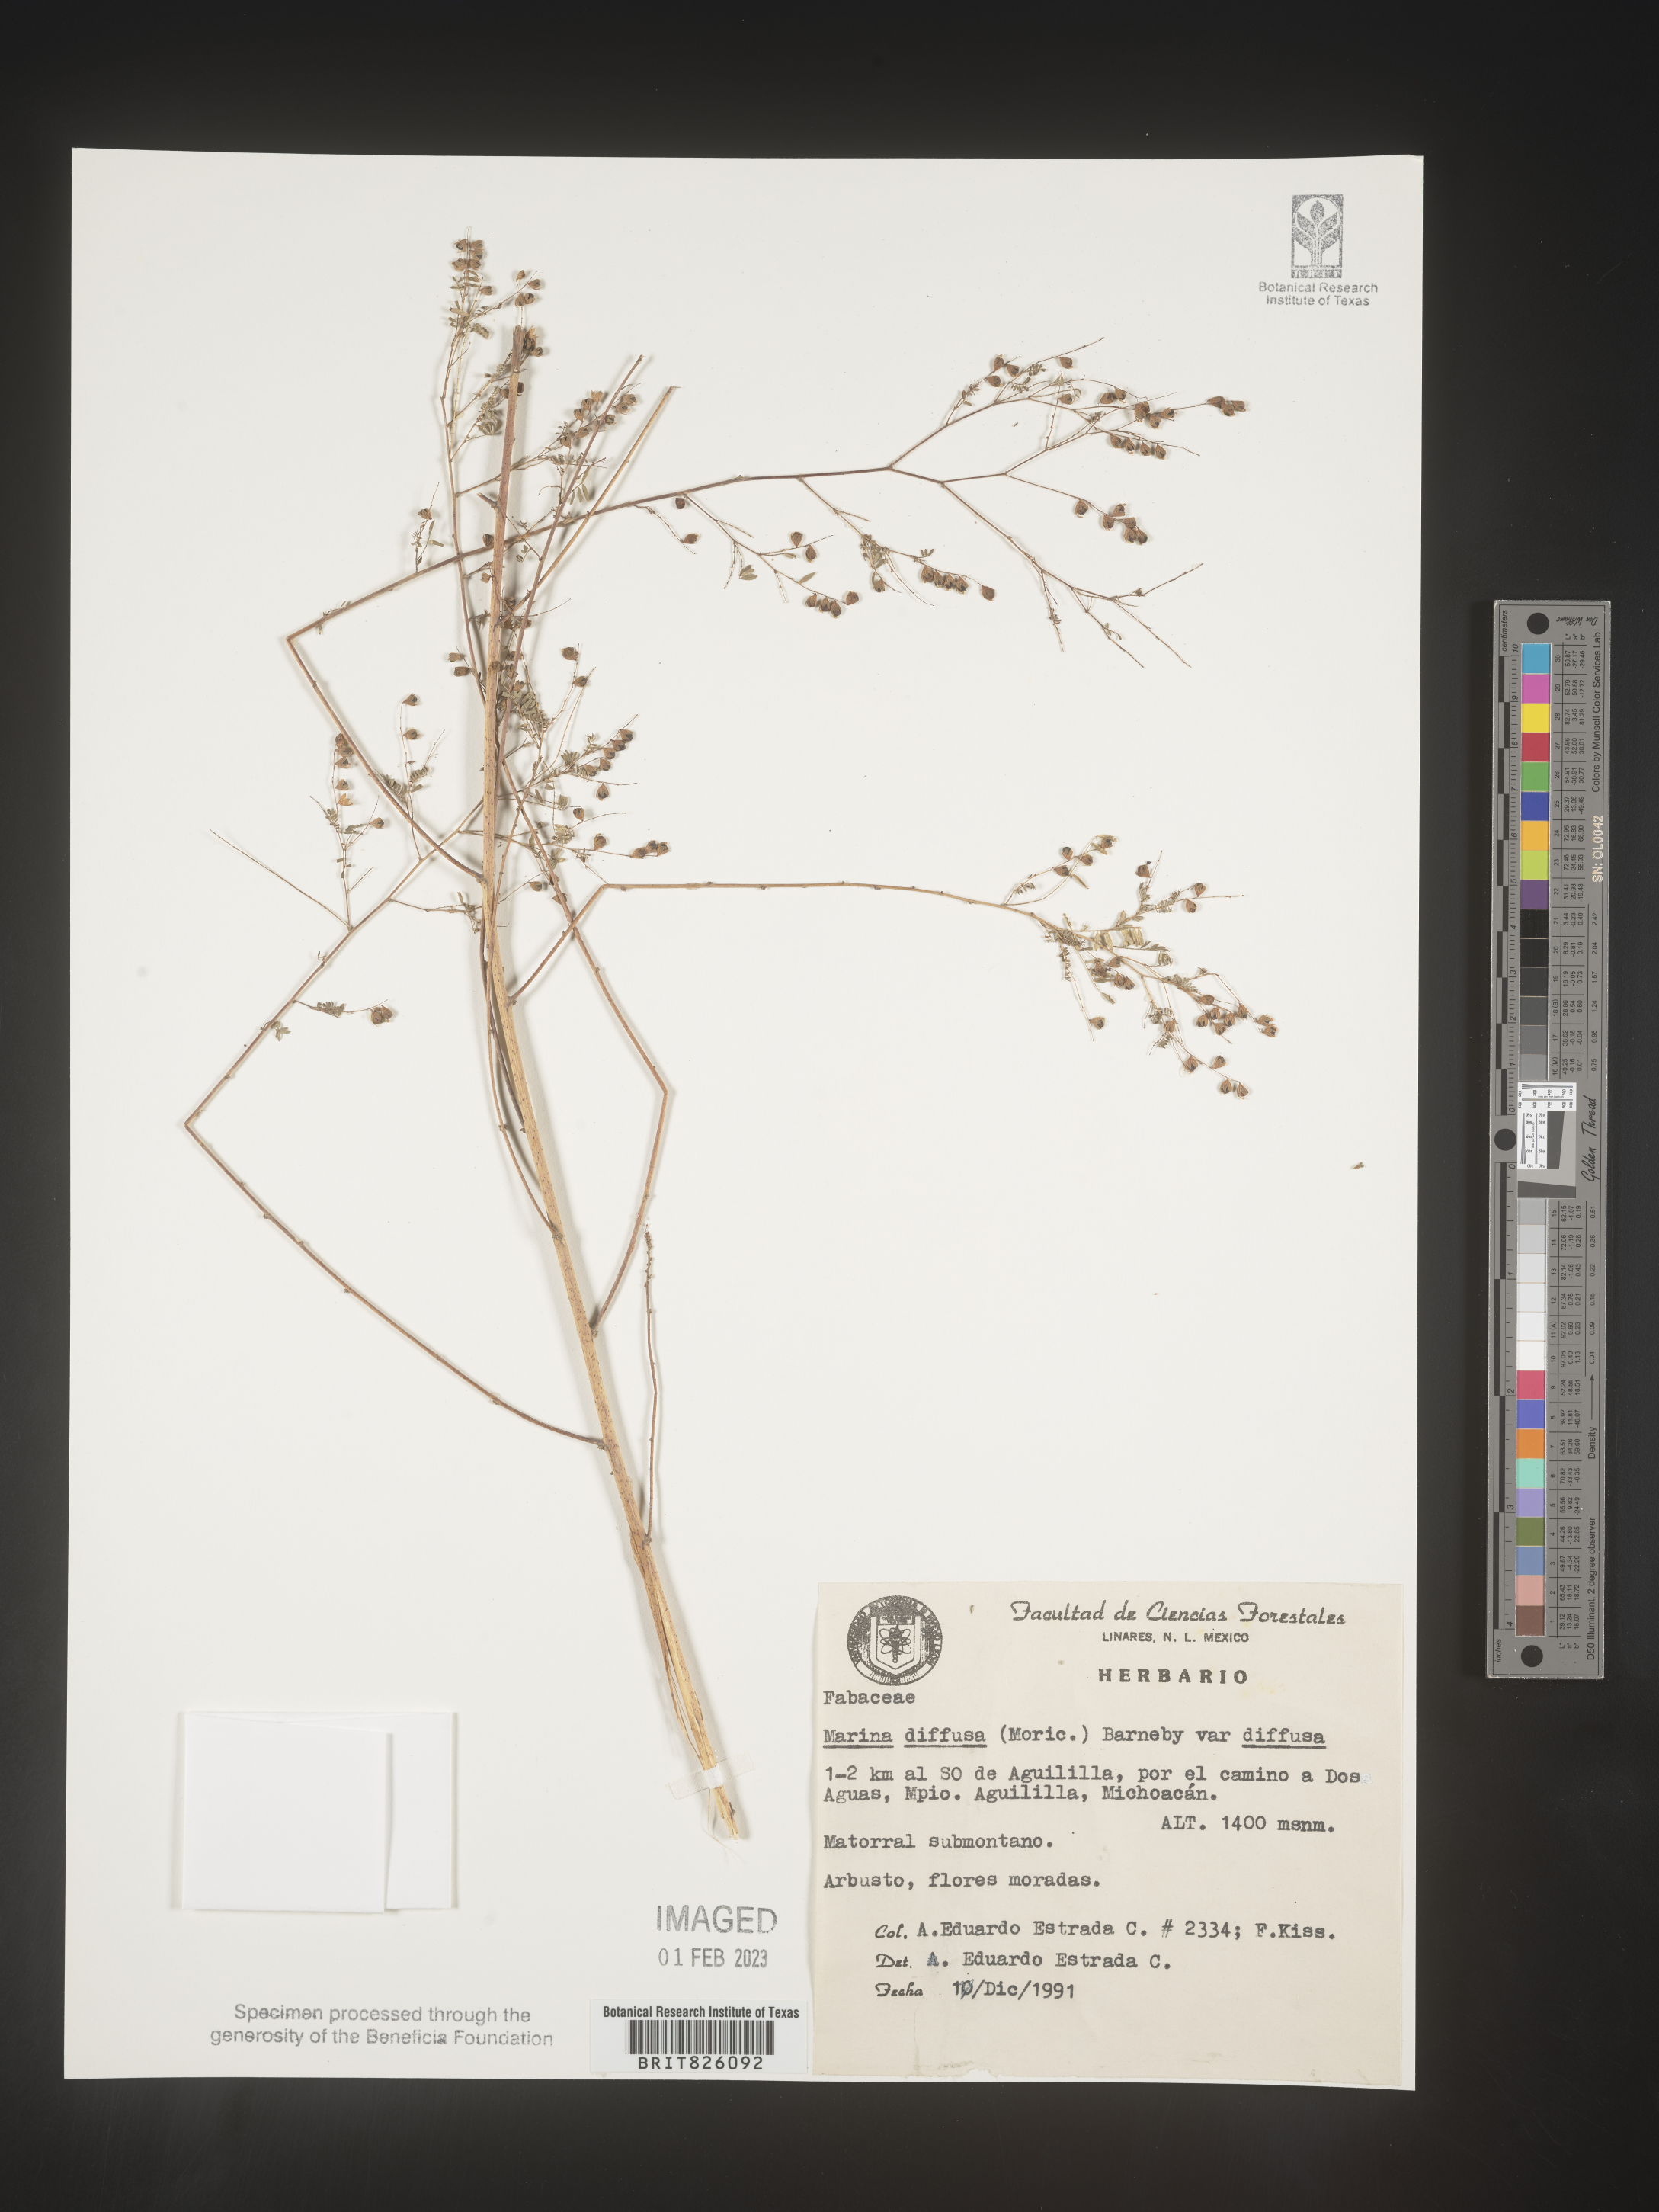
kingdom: Plantae
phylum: Tracheophyta
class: Magnoliopsida
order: Fabales
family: Fabaceae
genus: Marina
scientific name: Marina
